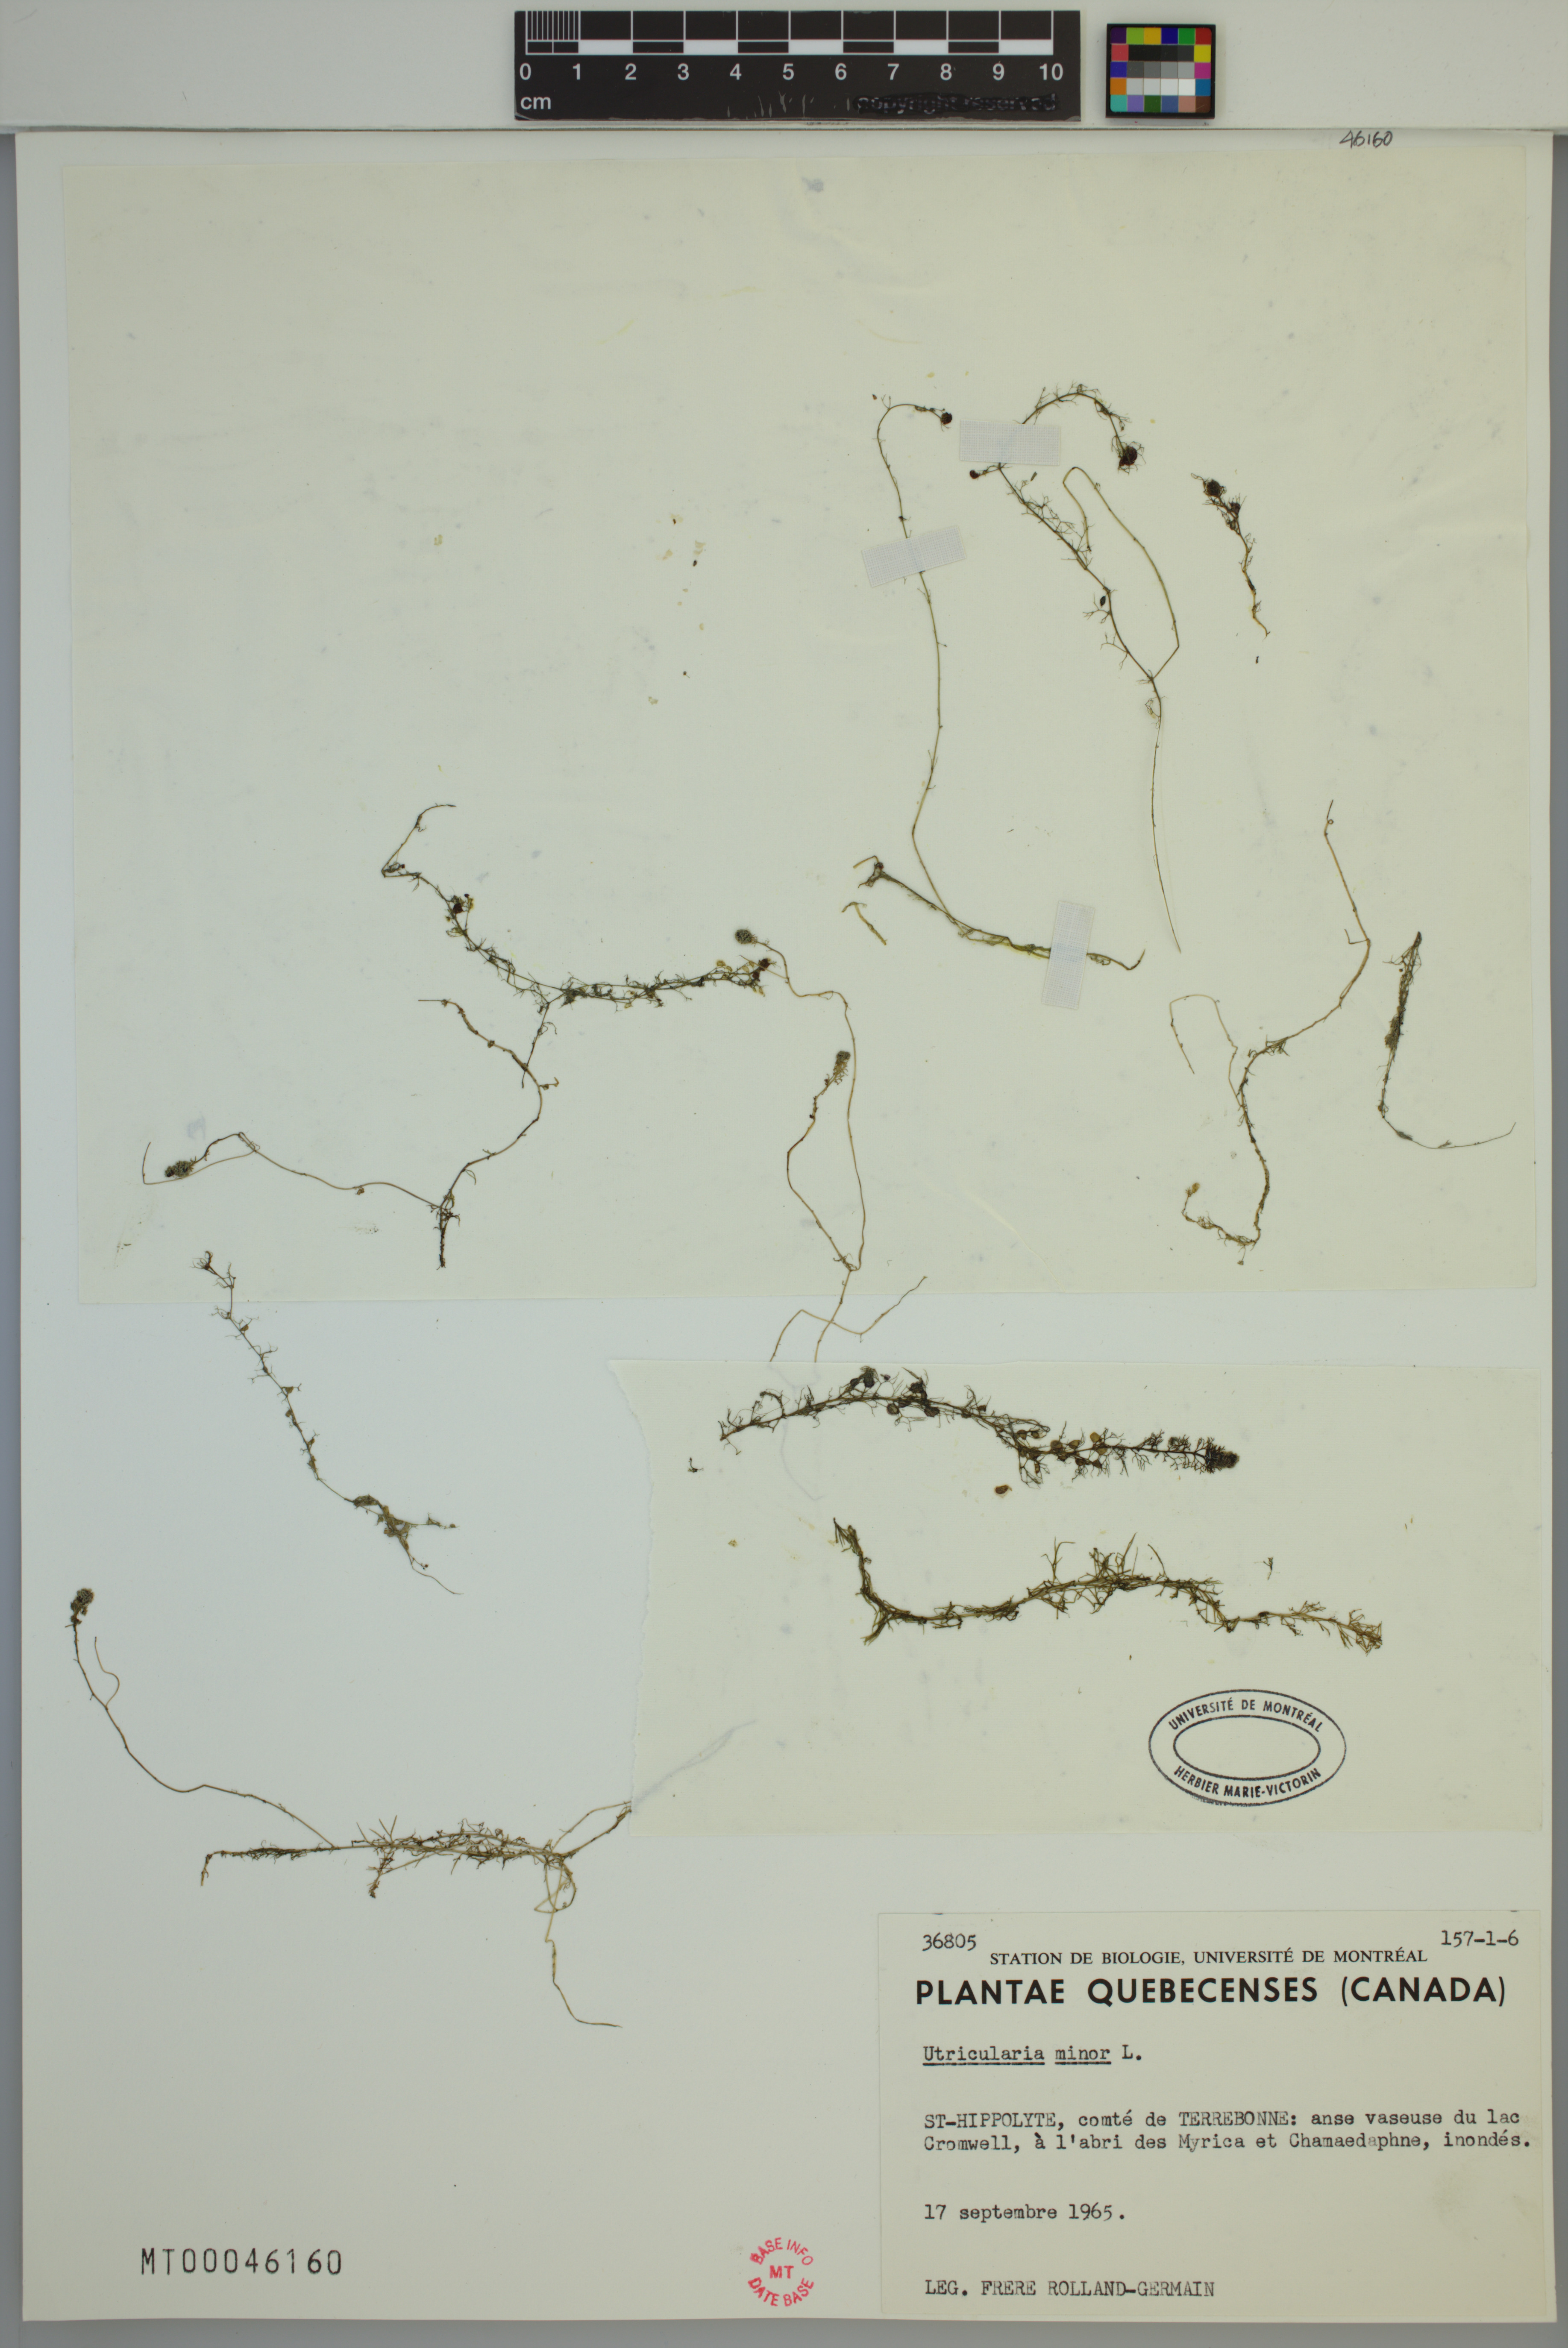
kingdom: Plantae
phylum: Tracheophyta
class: Magnoliopsida
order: Lamiales
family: Lentibulariaceae
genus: Utricularia
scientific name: Utricularia minor
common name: Lesser bladderwort
